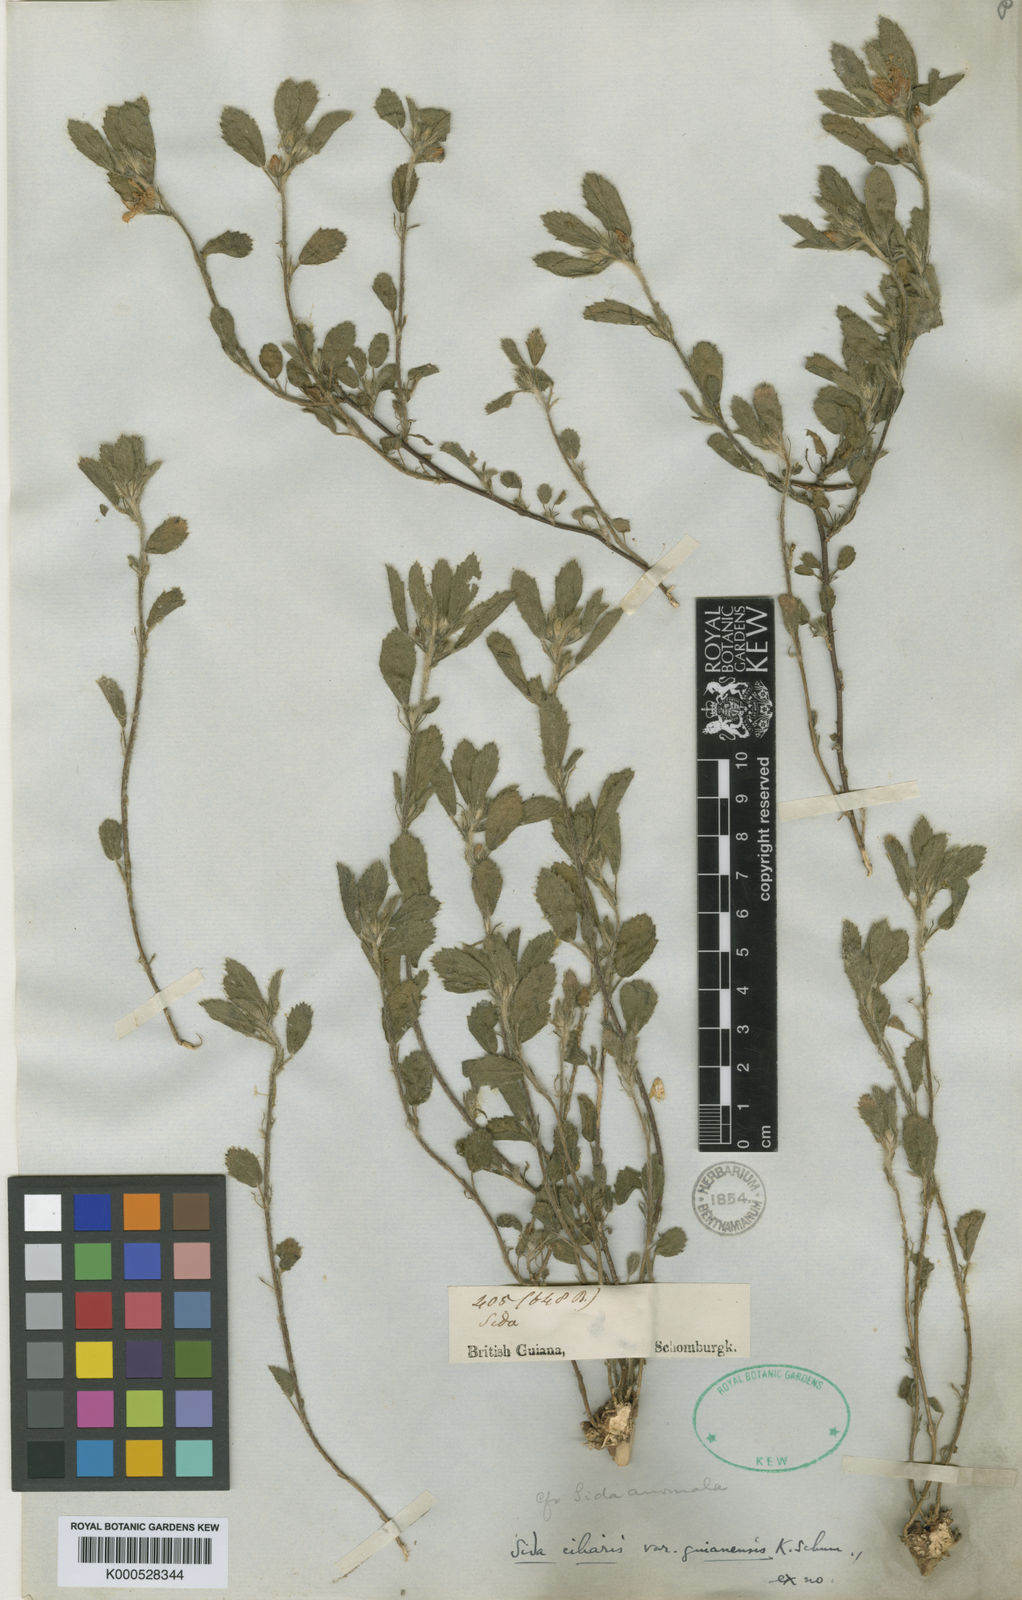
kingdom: Plantae
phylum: Tracheophyta
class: Magnoliopsida
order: Malvales
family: Malvaceae
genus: Sida
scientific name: Sida ciliaris
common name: Bracted fanpetals
